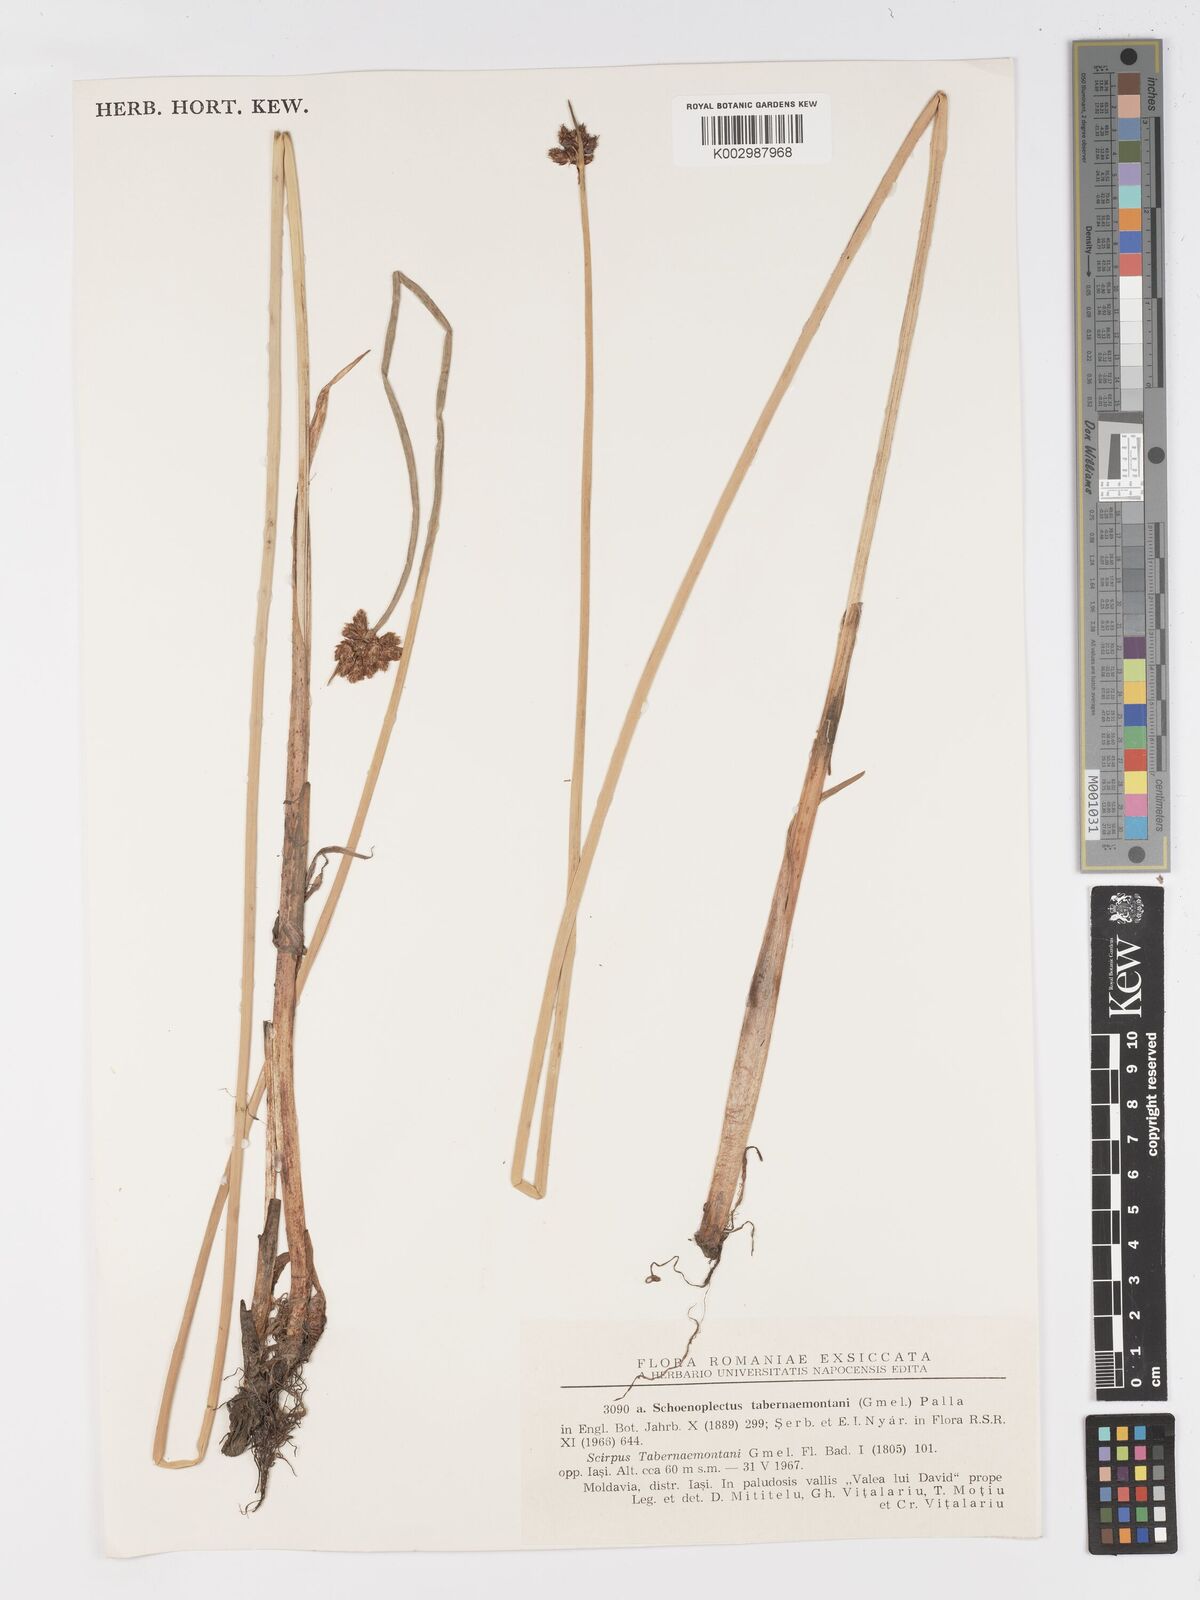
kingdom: Plantae
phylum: Tracheophyta
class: Liliopsida
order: Poales
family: Cyperaceae
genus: Schoenoplectus
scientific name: Schoenoplectus tabernaemontani
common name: Grey club-rush
